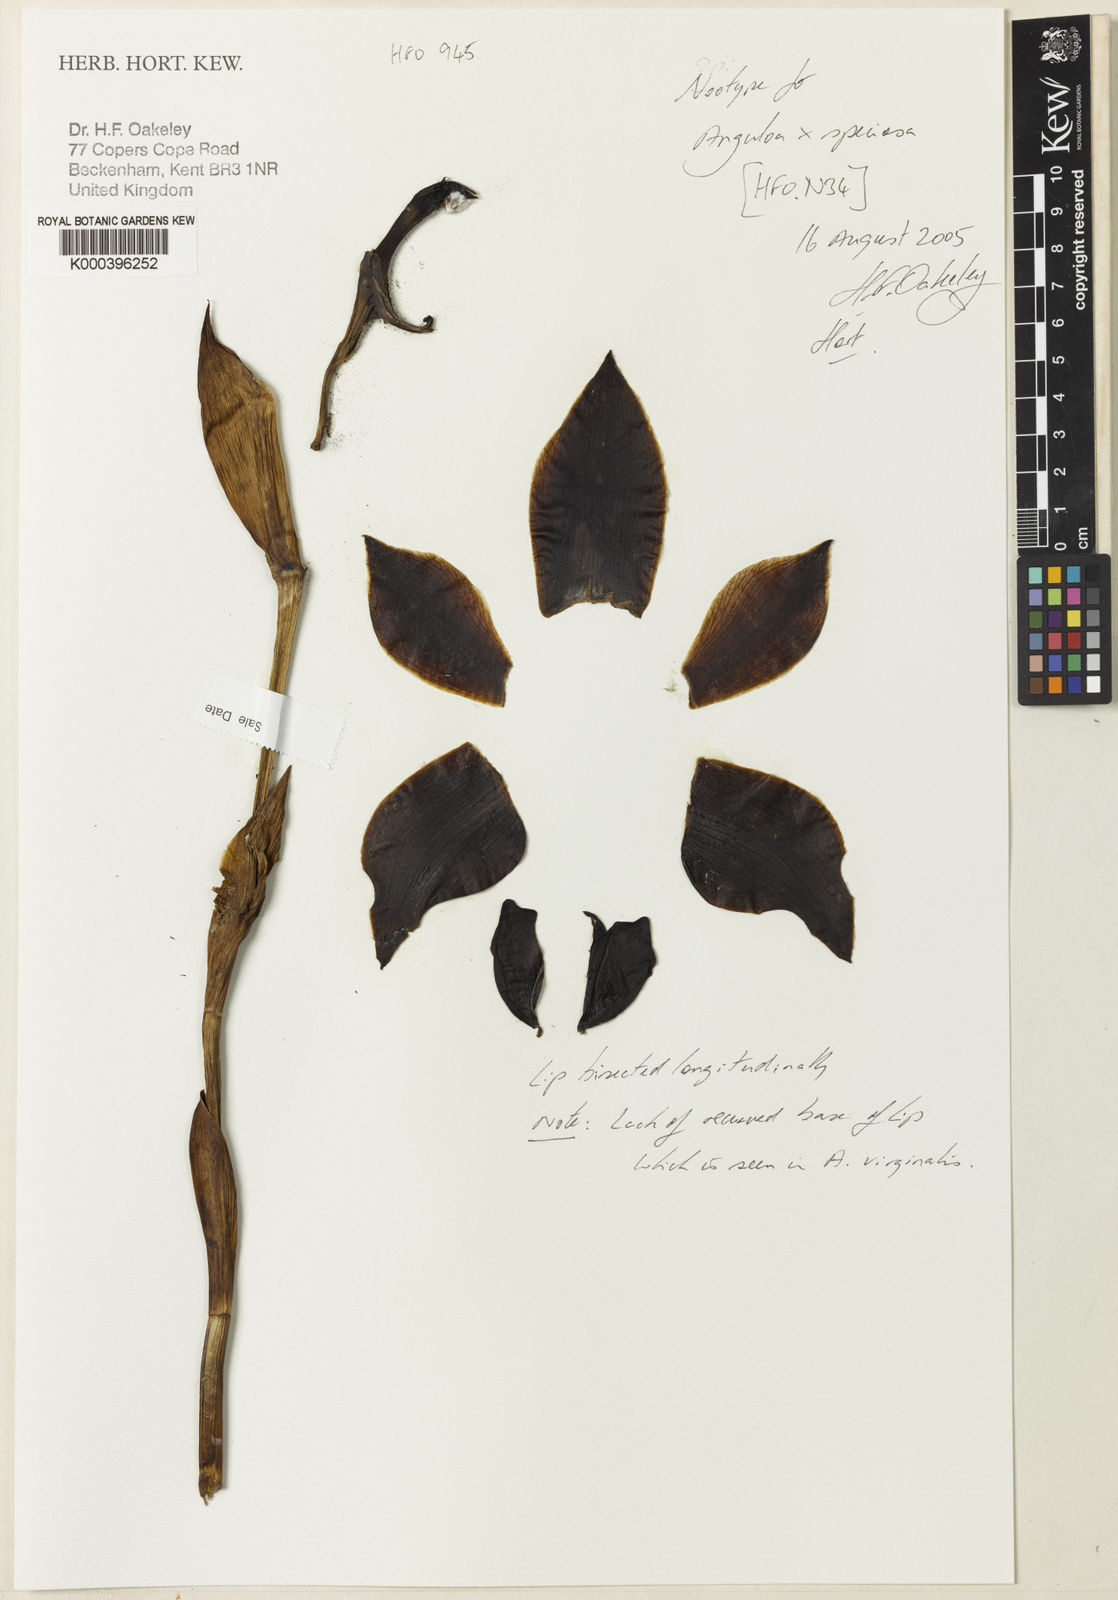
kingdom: Plantae
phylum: Tracheophyta
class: Liliopsida
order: Asparagales
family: Orchidaceae
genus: Anguloa
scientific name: Anguloa speciosa
